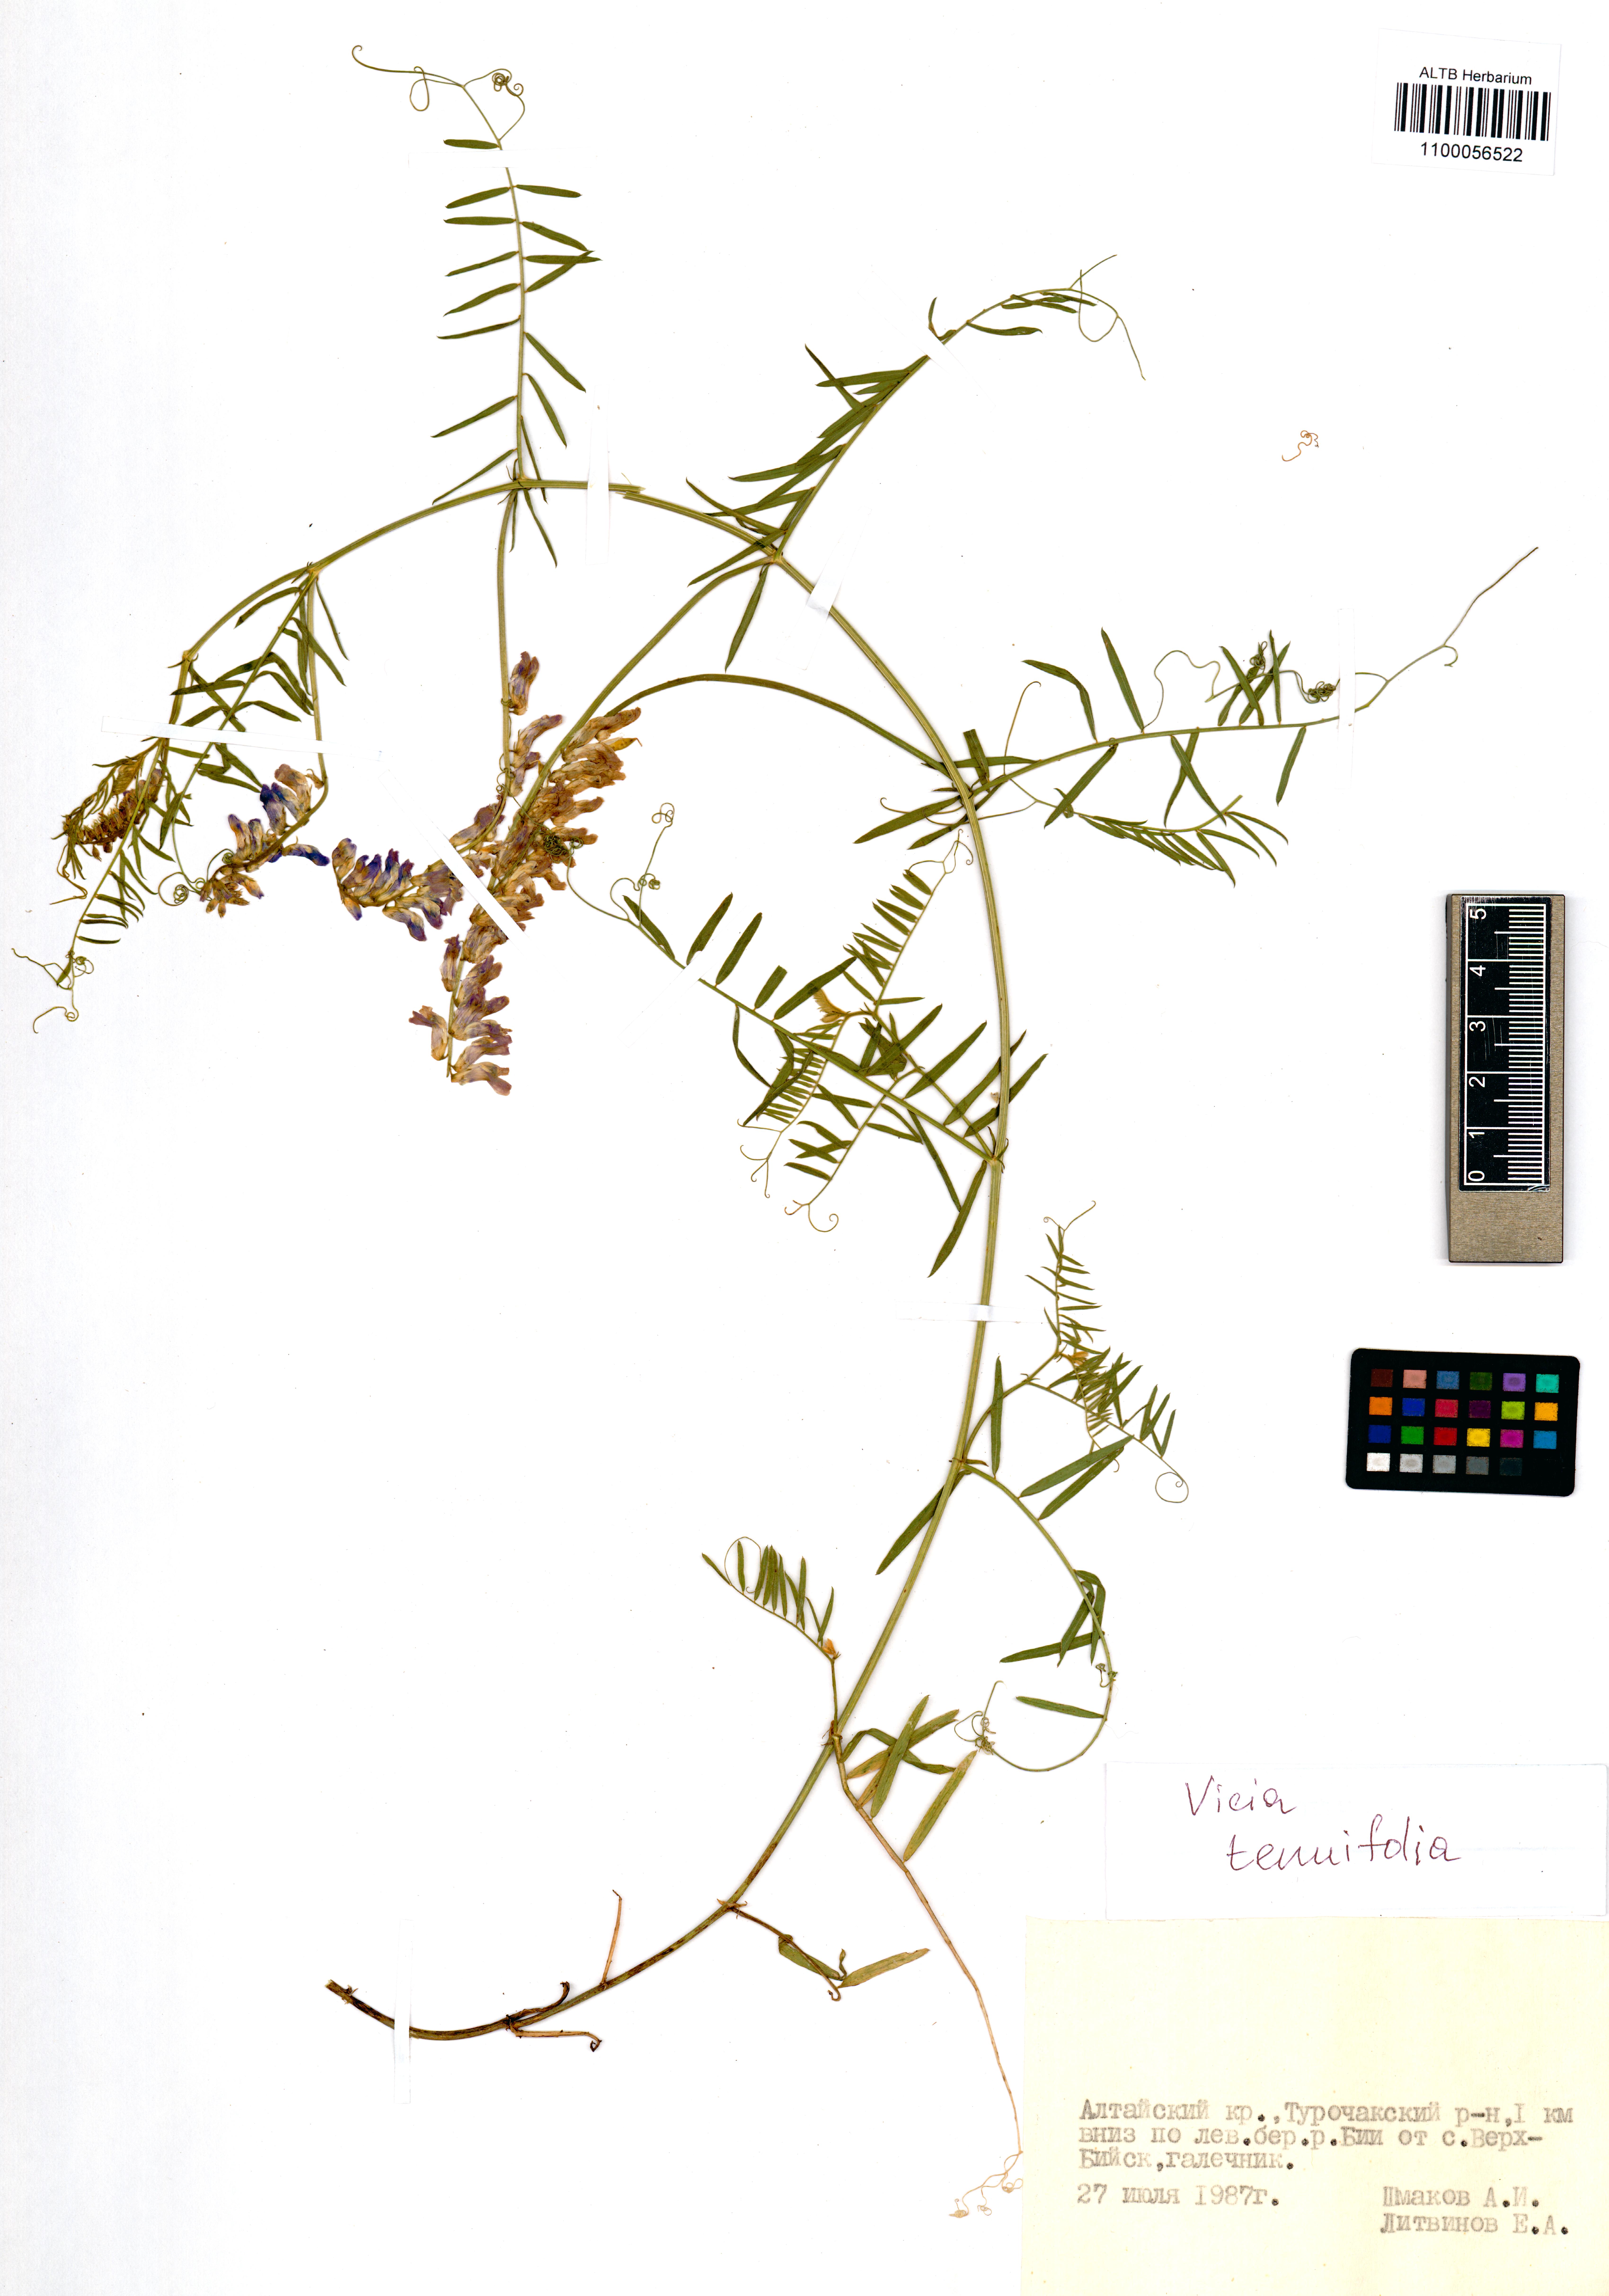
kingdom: Plantae
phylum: Tracheophyta
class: Magnoliopsida
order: Fabales
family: Fabaceae
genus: Vicia
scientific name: Vicia tenuifolia
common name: Fine-leaved vetch
